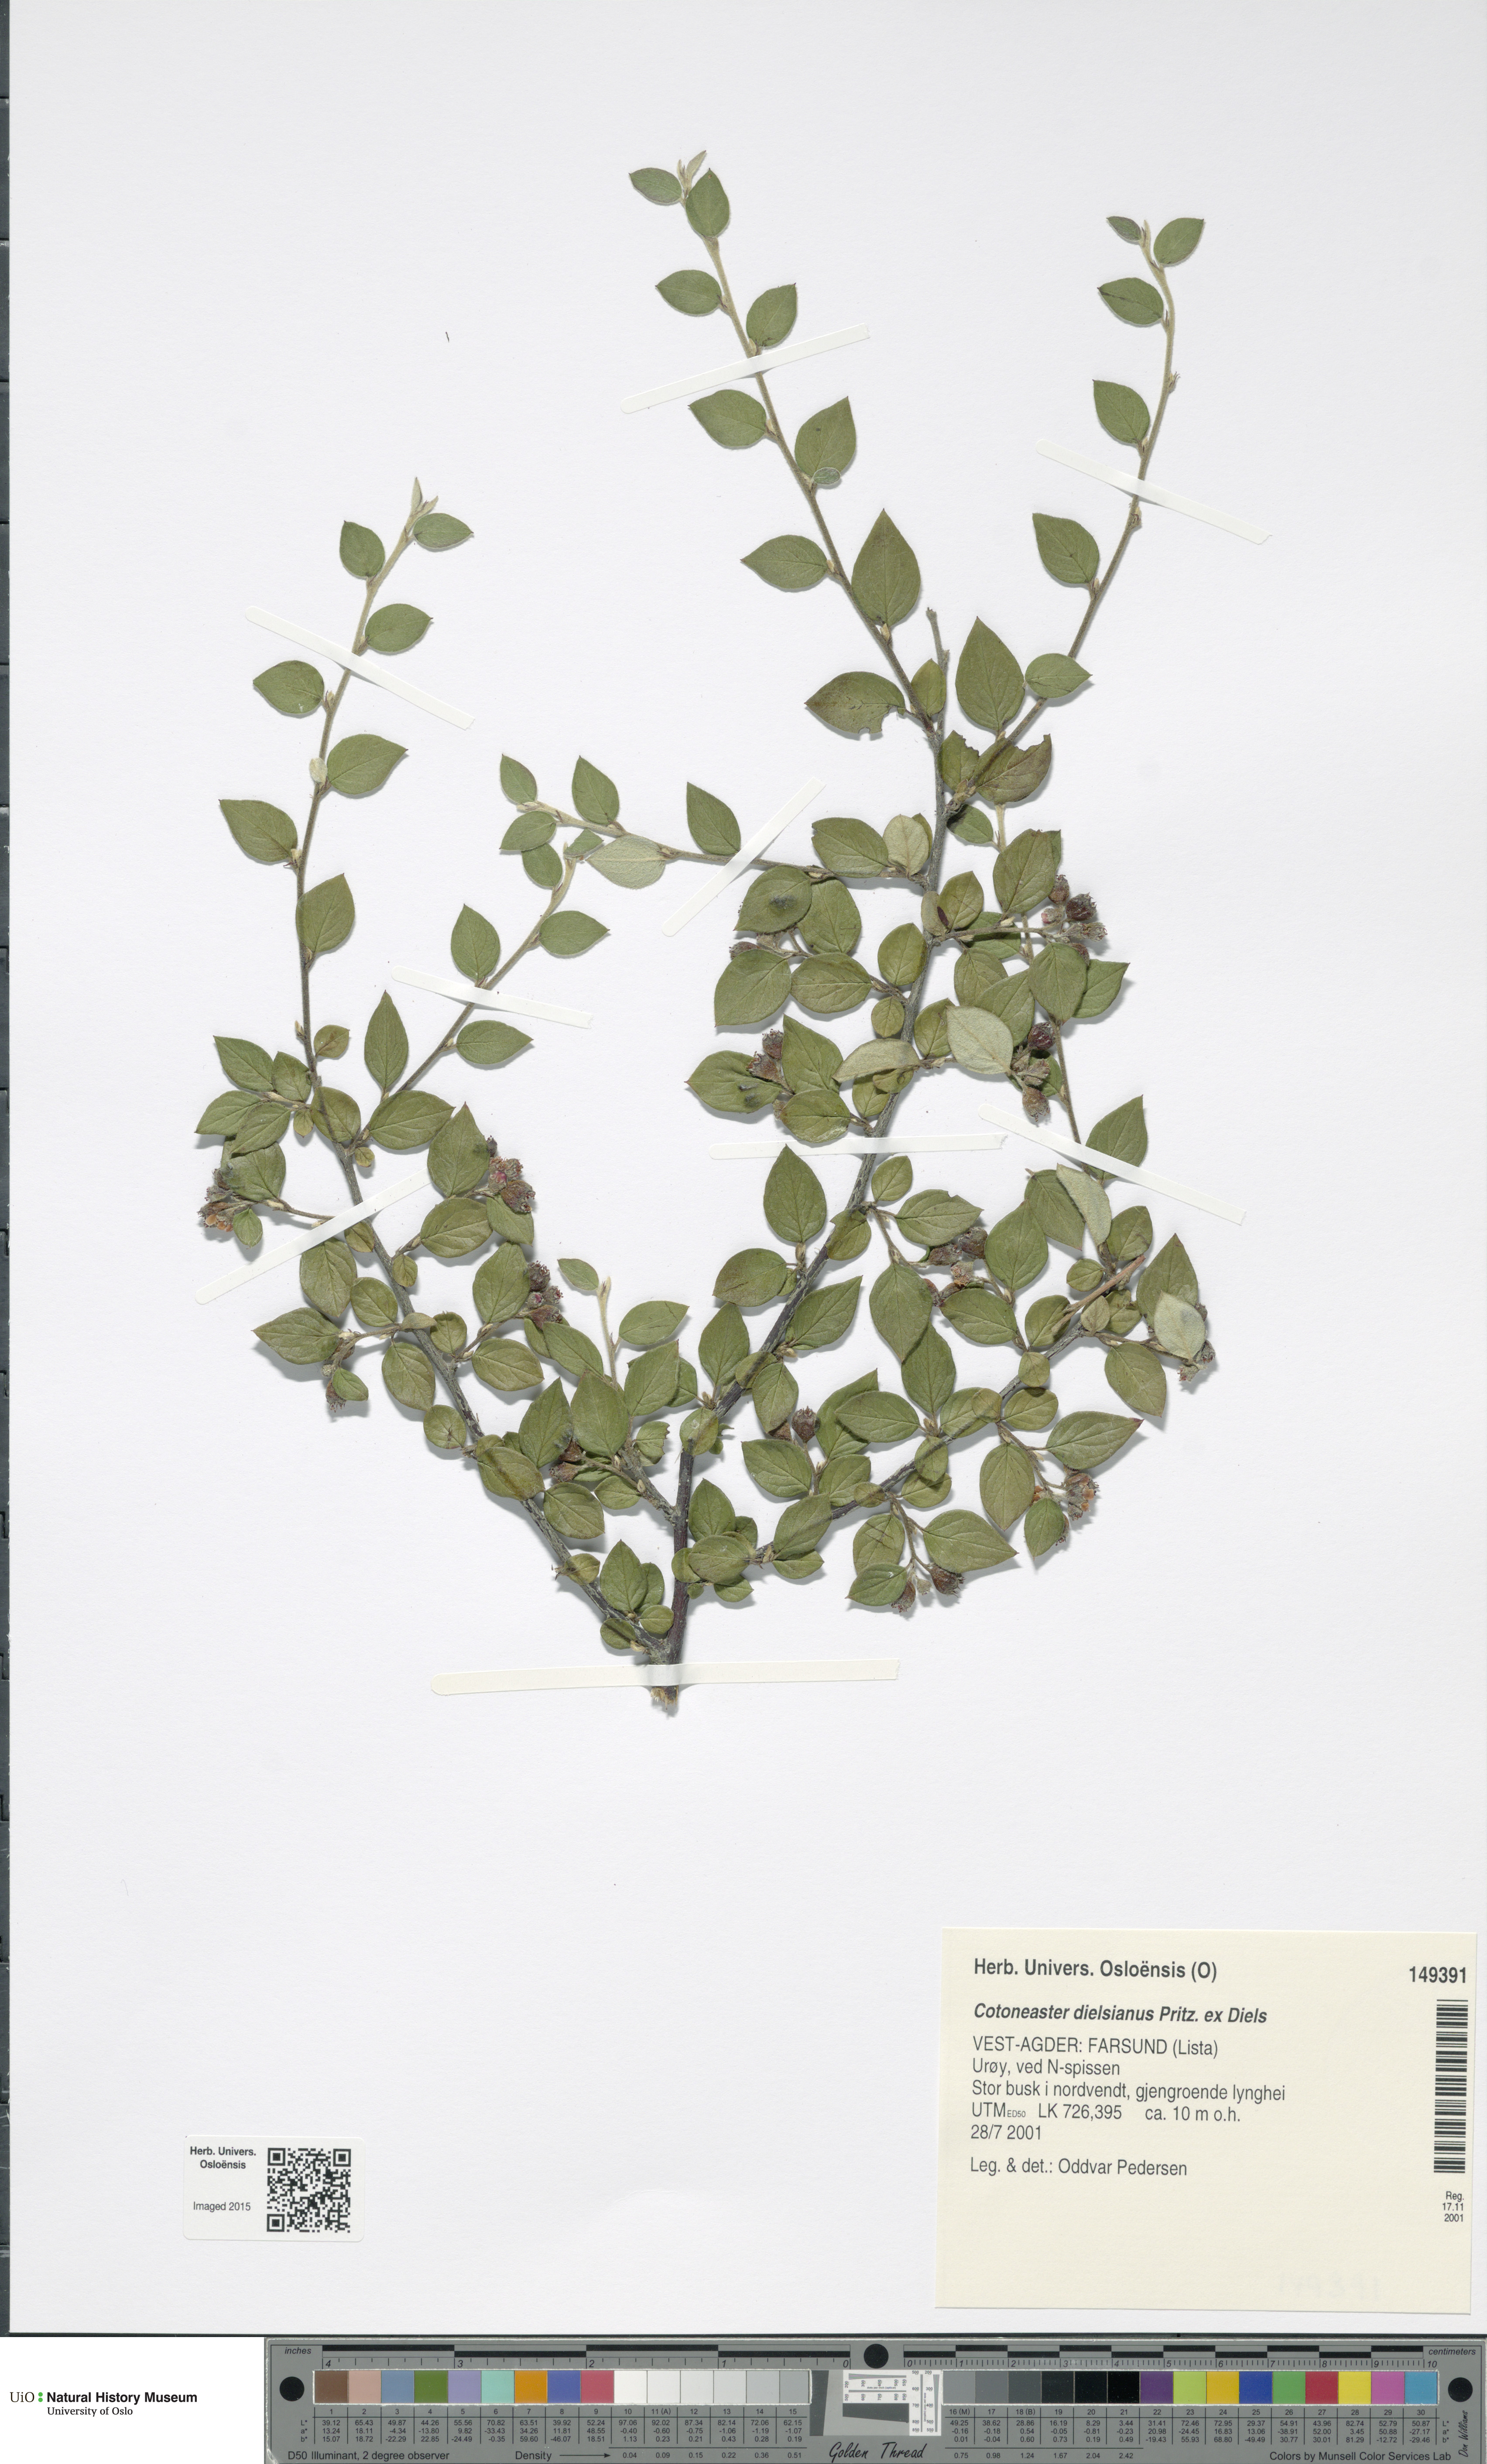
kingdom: Plantae
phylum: Tracheophyta
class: Magnoliopsida
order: Rosales
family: Rosaceae
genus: Cotoneaster
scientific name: Cotoneaster dielsianus
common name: Diels's cotoneaster
